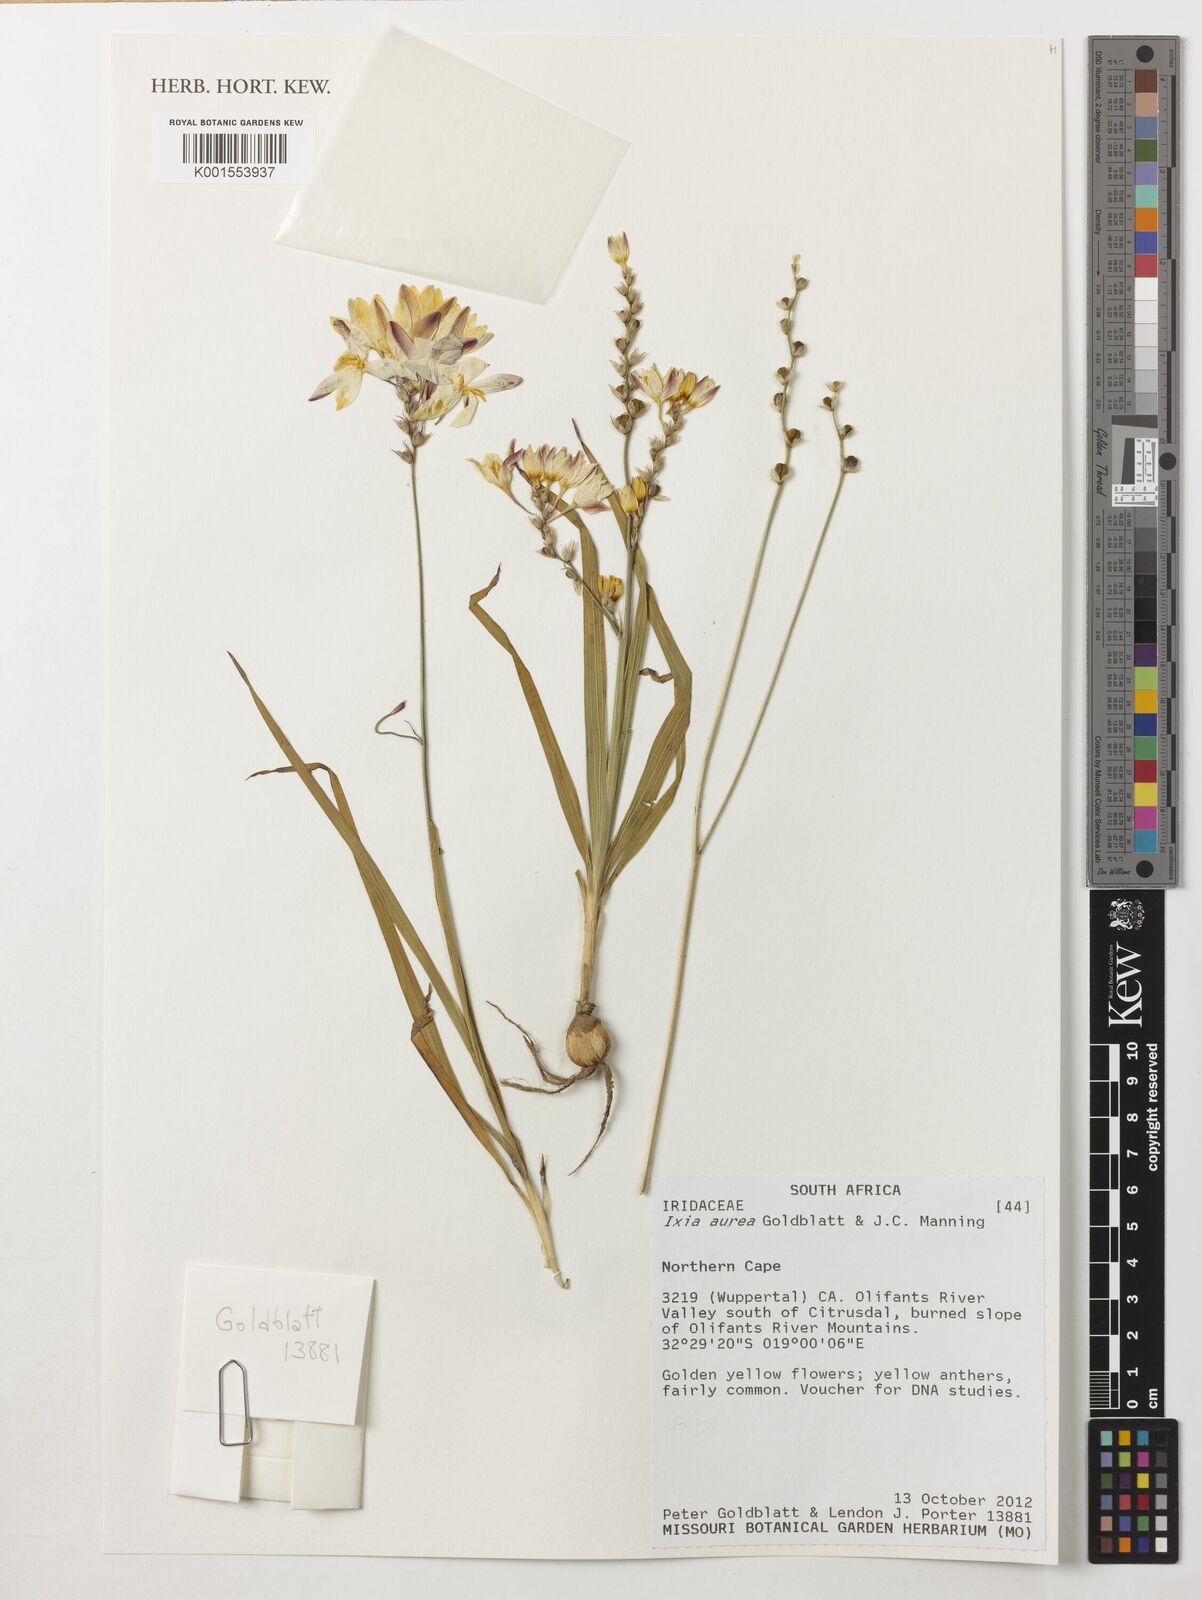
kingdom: Plantae
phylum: Tracheophyta
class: Liliopsida
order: Asparagales
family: Iridaceae
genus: Ixia
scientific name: Ixia aurea
